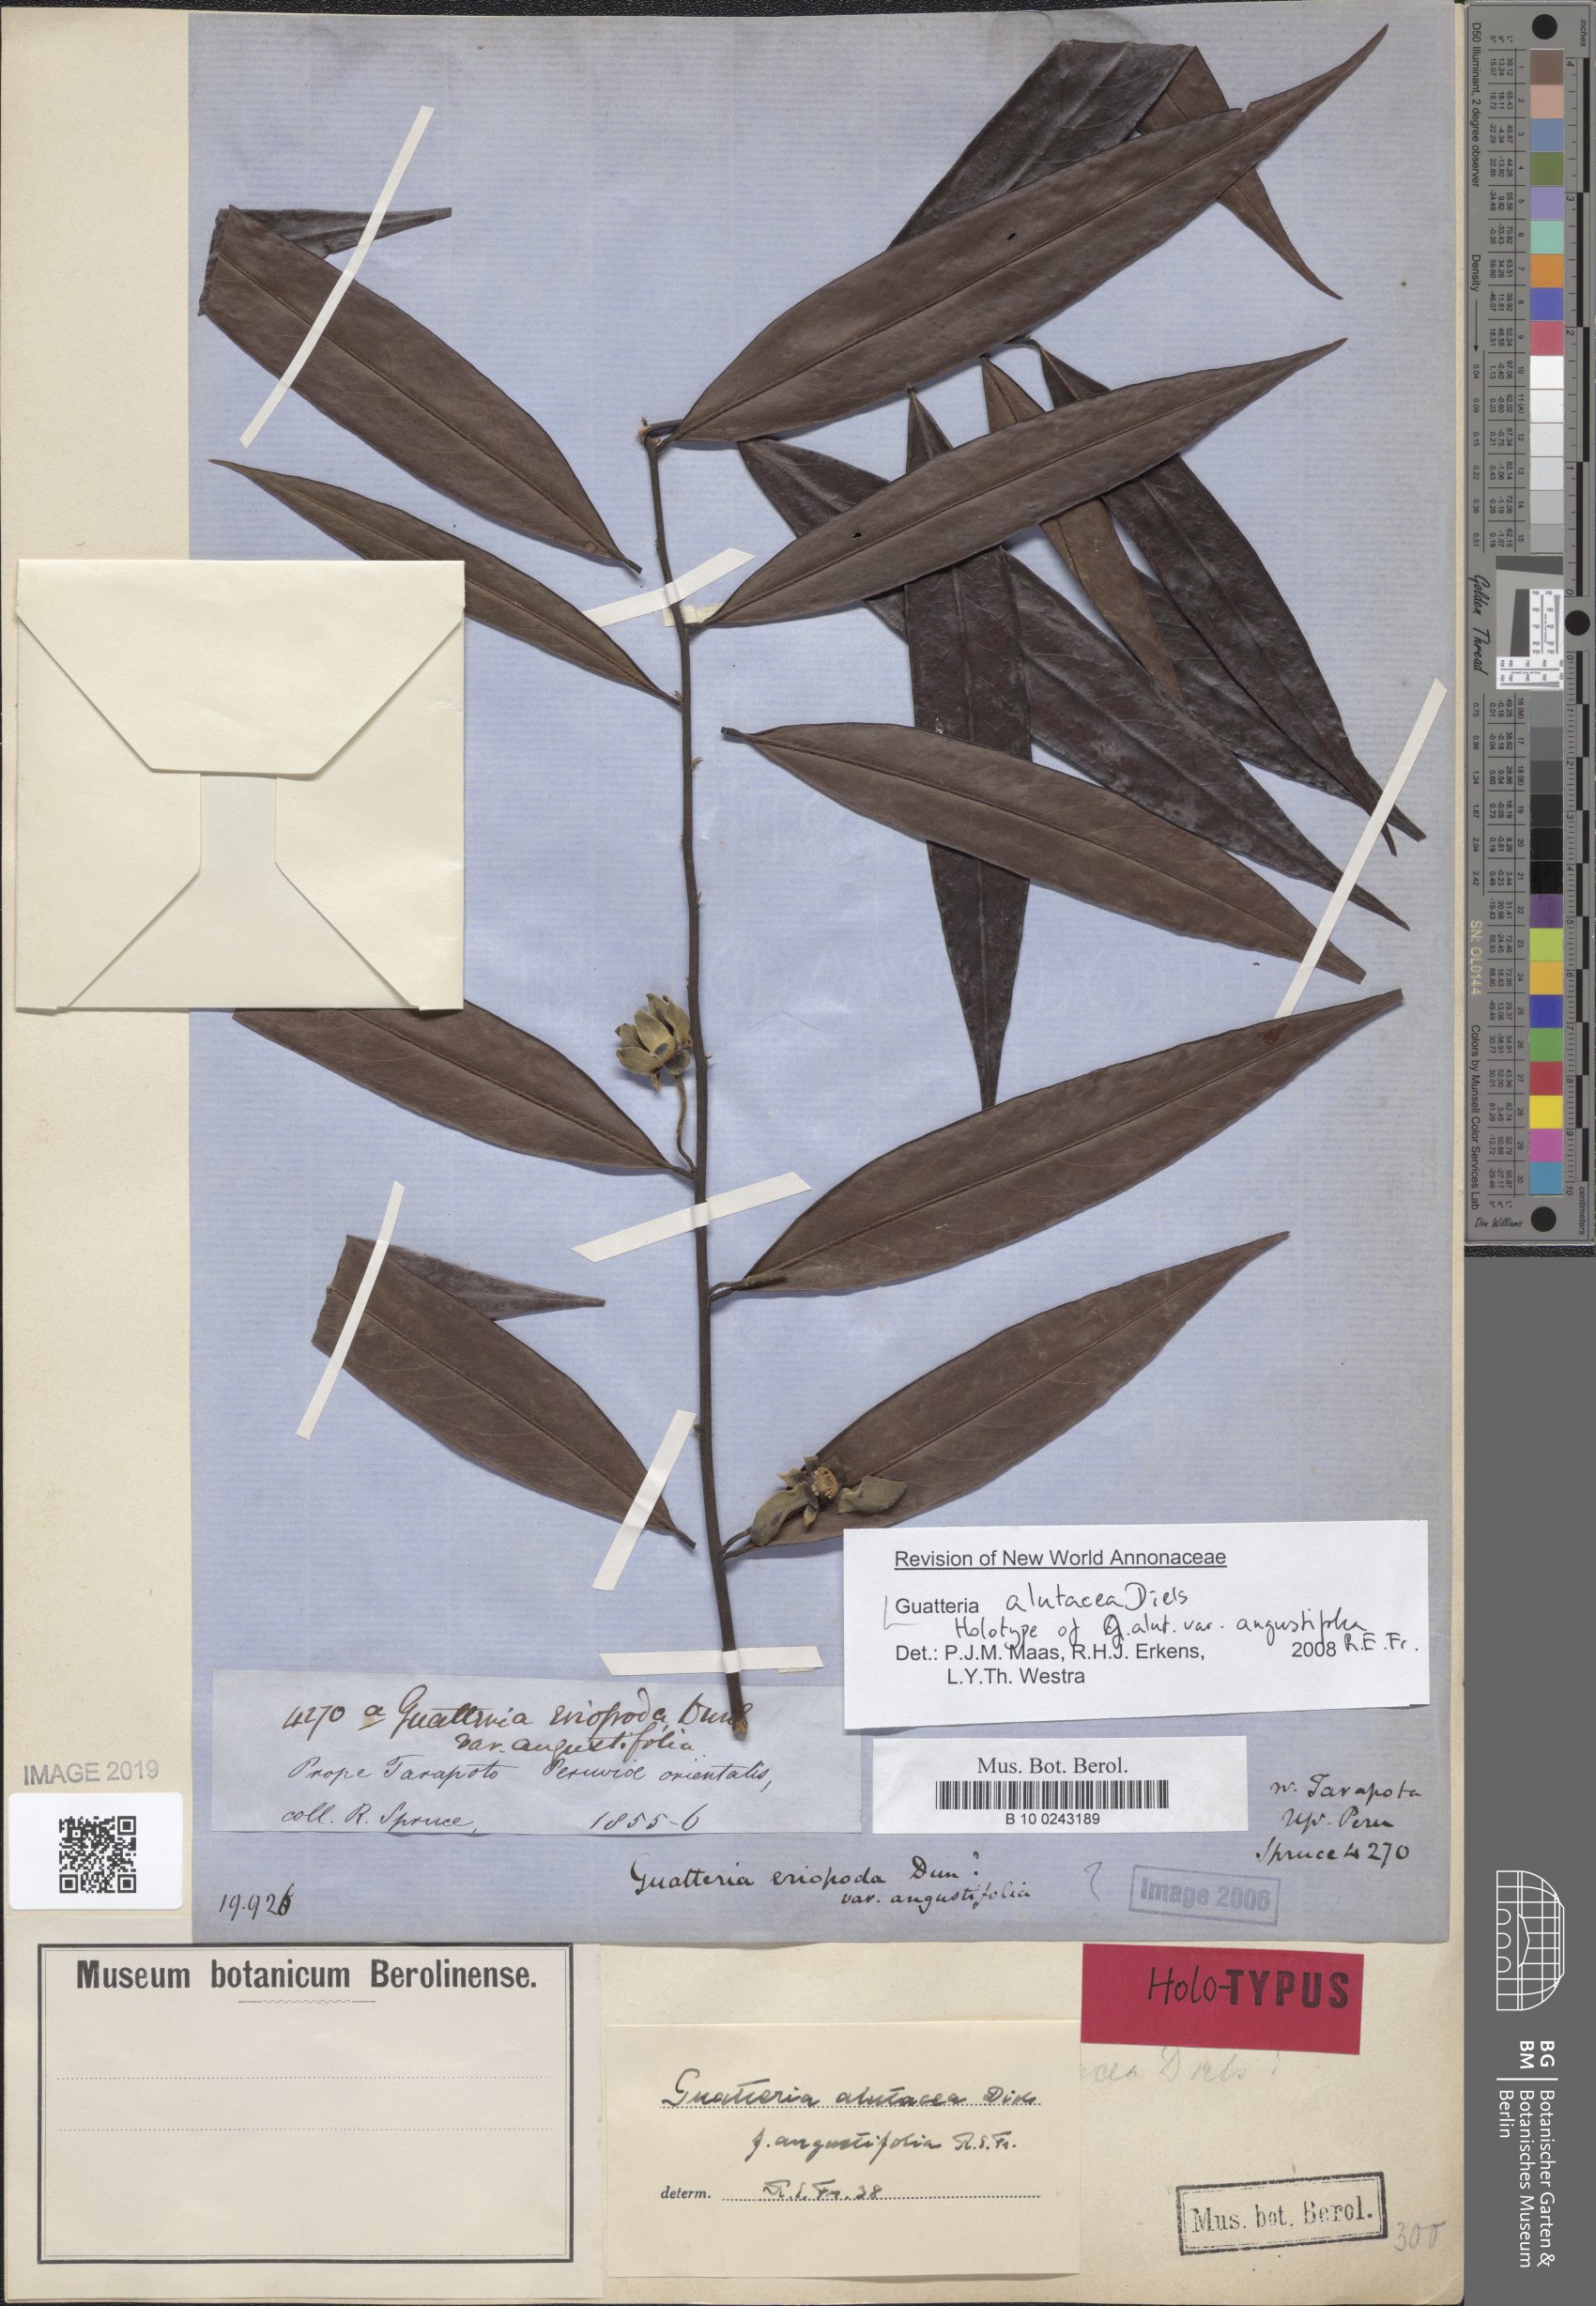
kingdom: Plantae
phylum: Tracheophyta
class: Magnoliopsida
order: Magnoliales
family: Annonaceae
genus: Guatteria
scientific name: Guatteria alutacea
